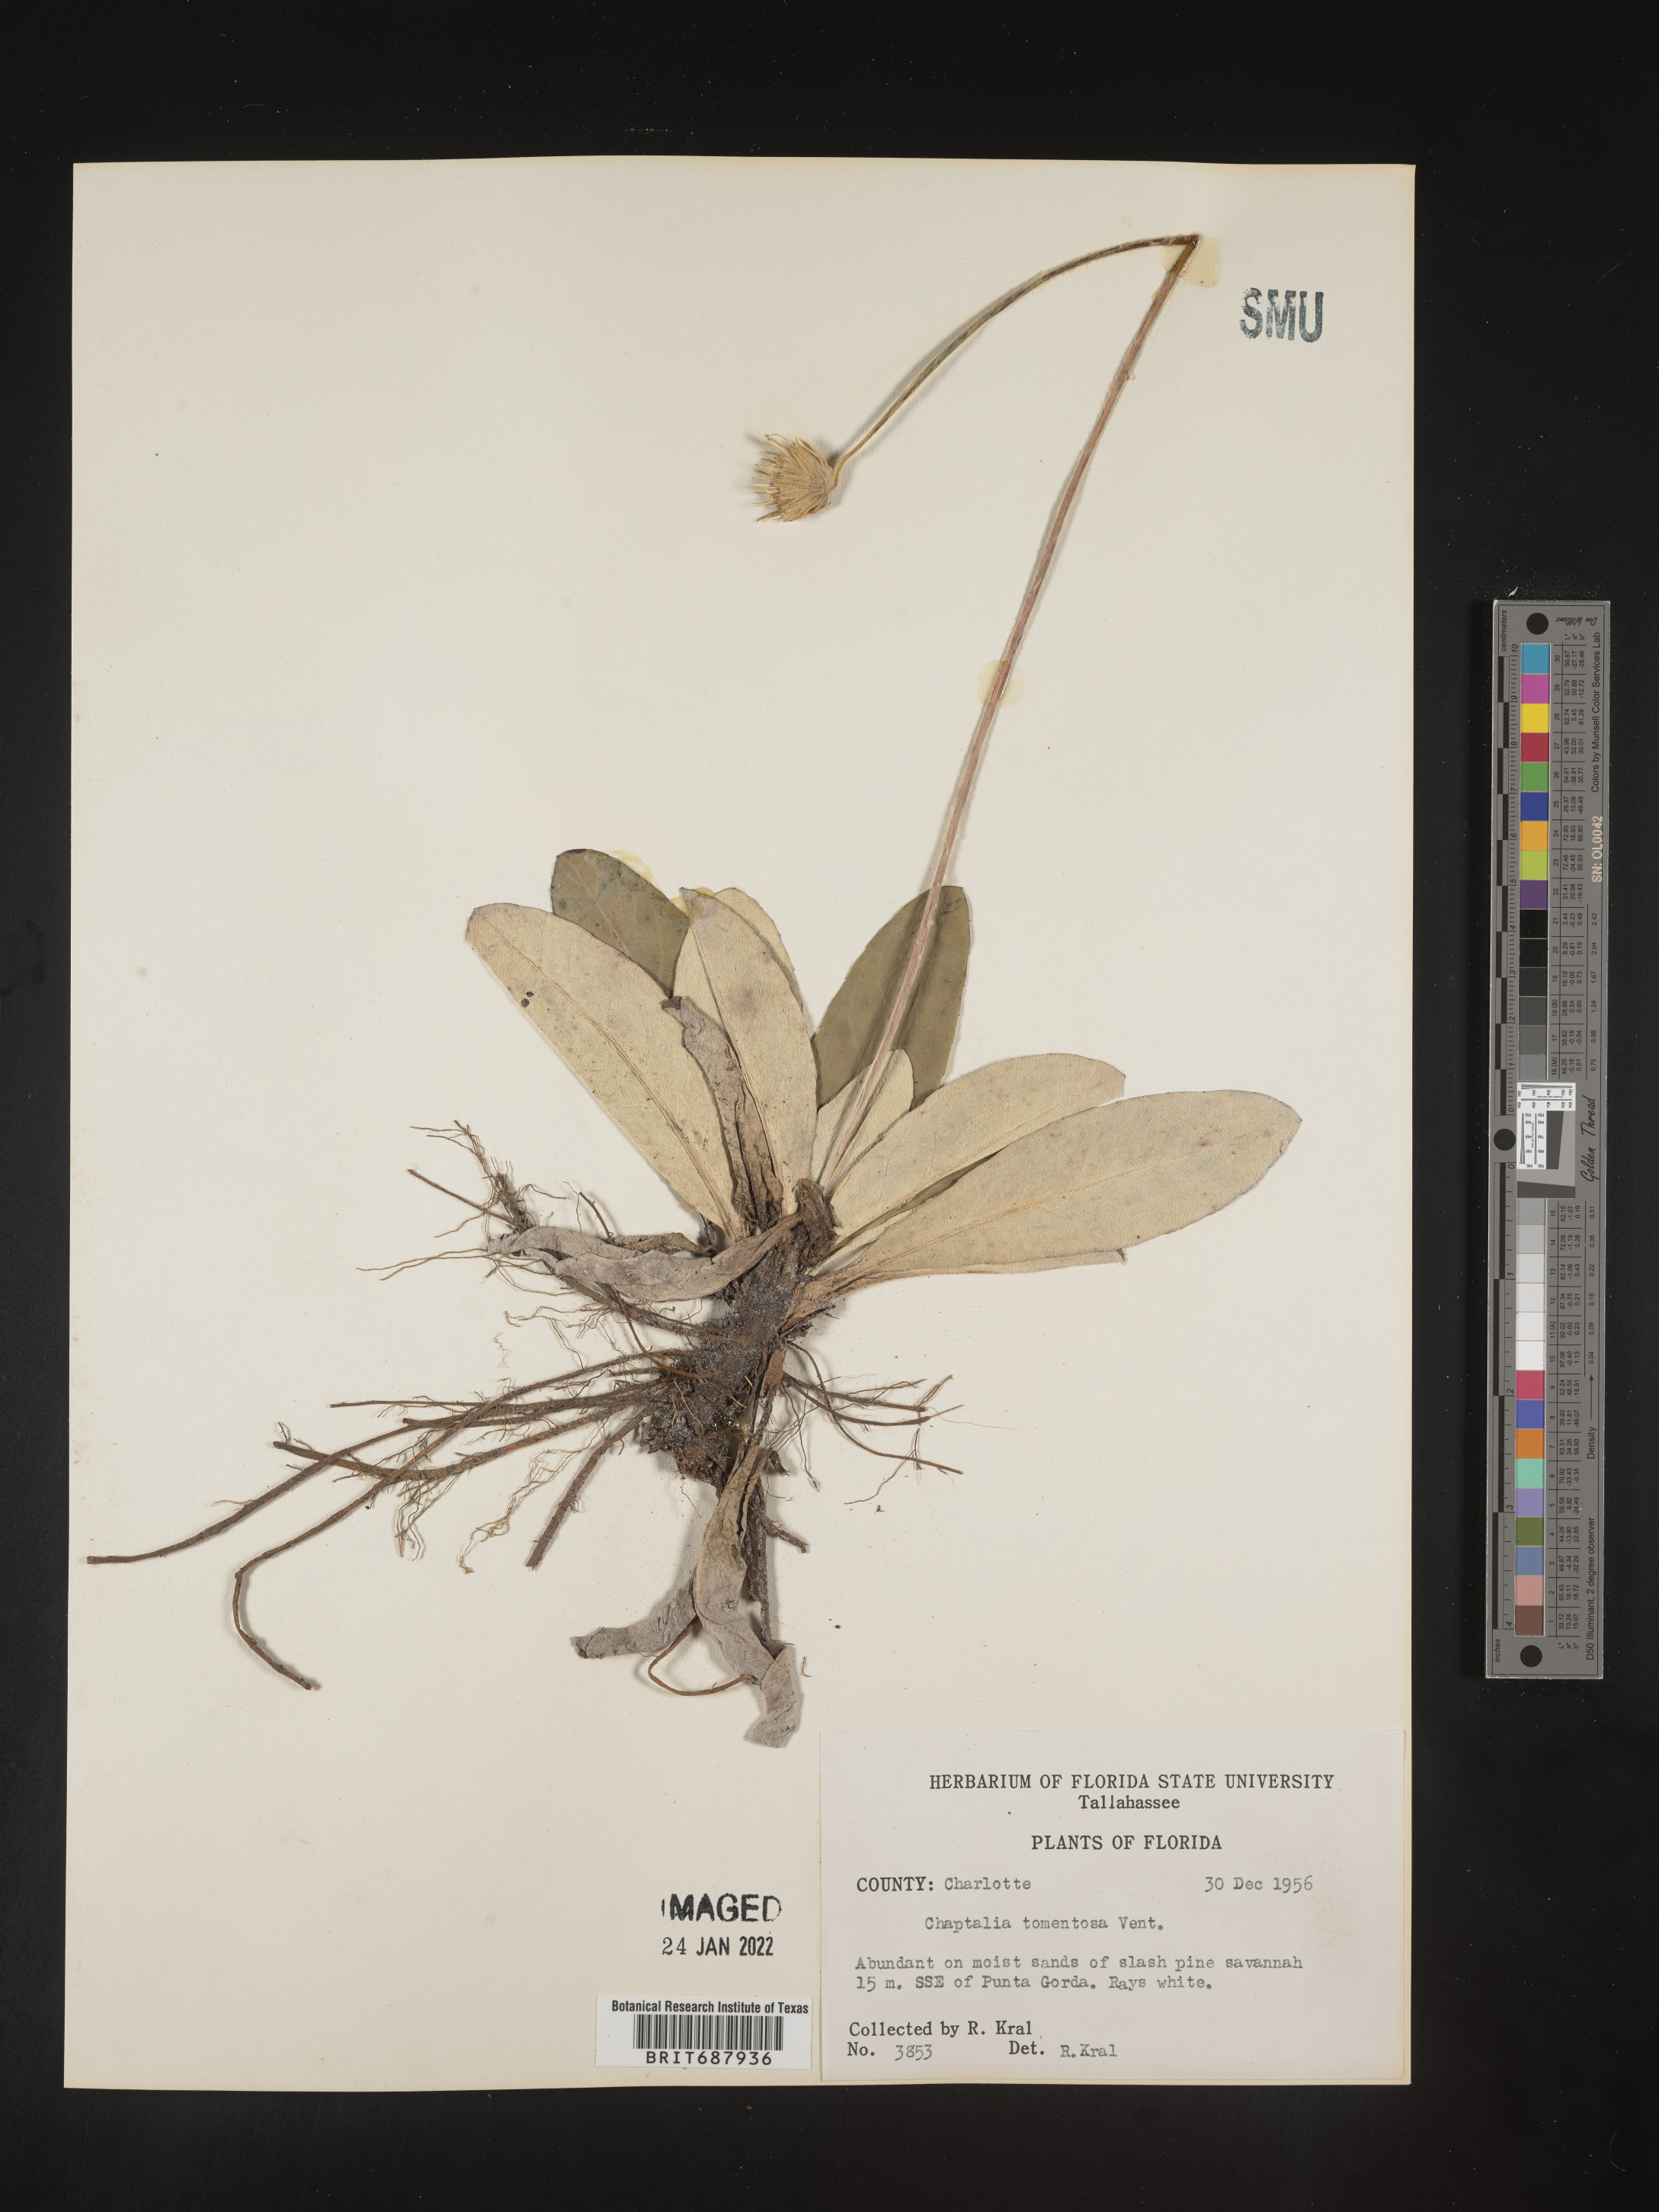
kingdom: Plantae
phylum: Tracheophyta
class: Magnoliopsida
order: Asterales
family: Asteraceae
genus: Chaptalia
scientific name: Chaptalia tomentosa
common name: Woolly sunbonnet
